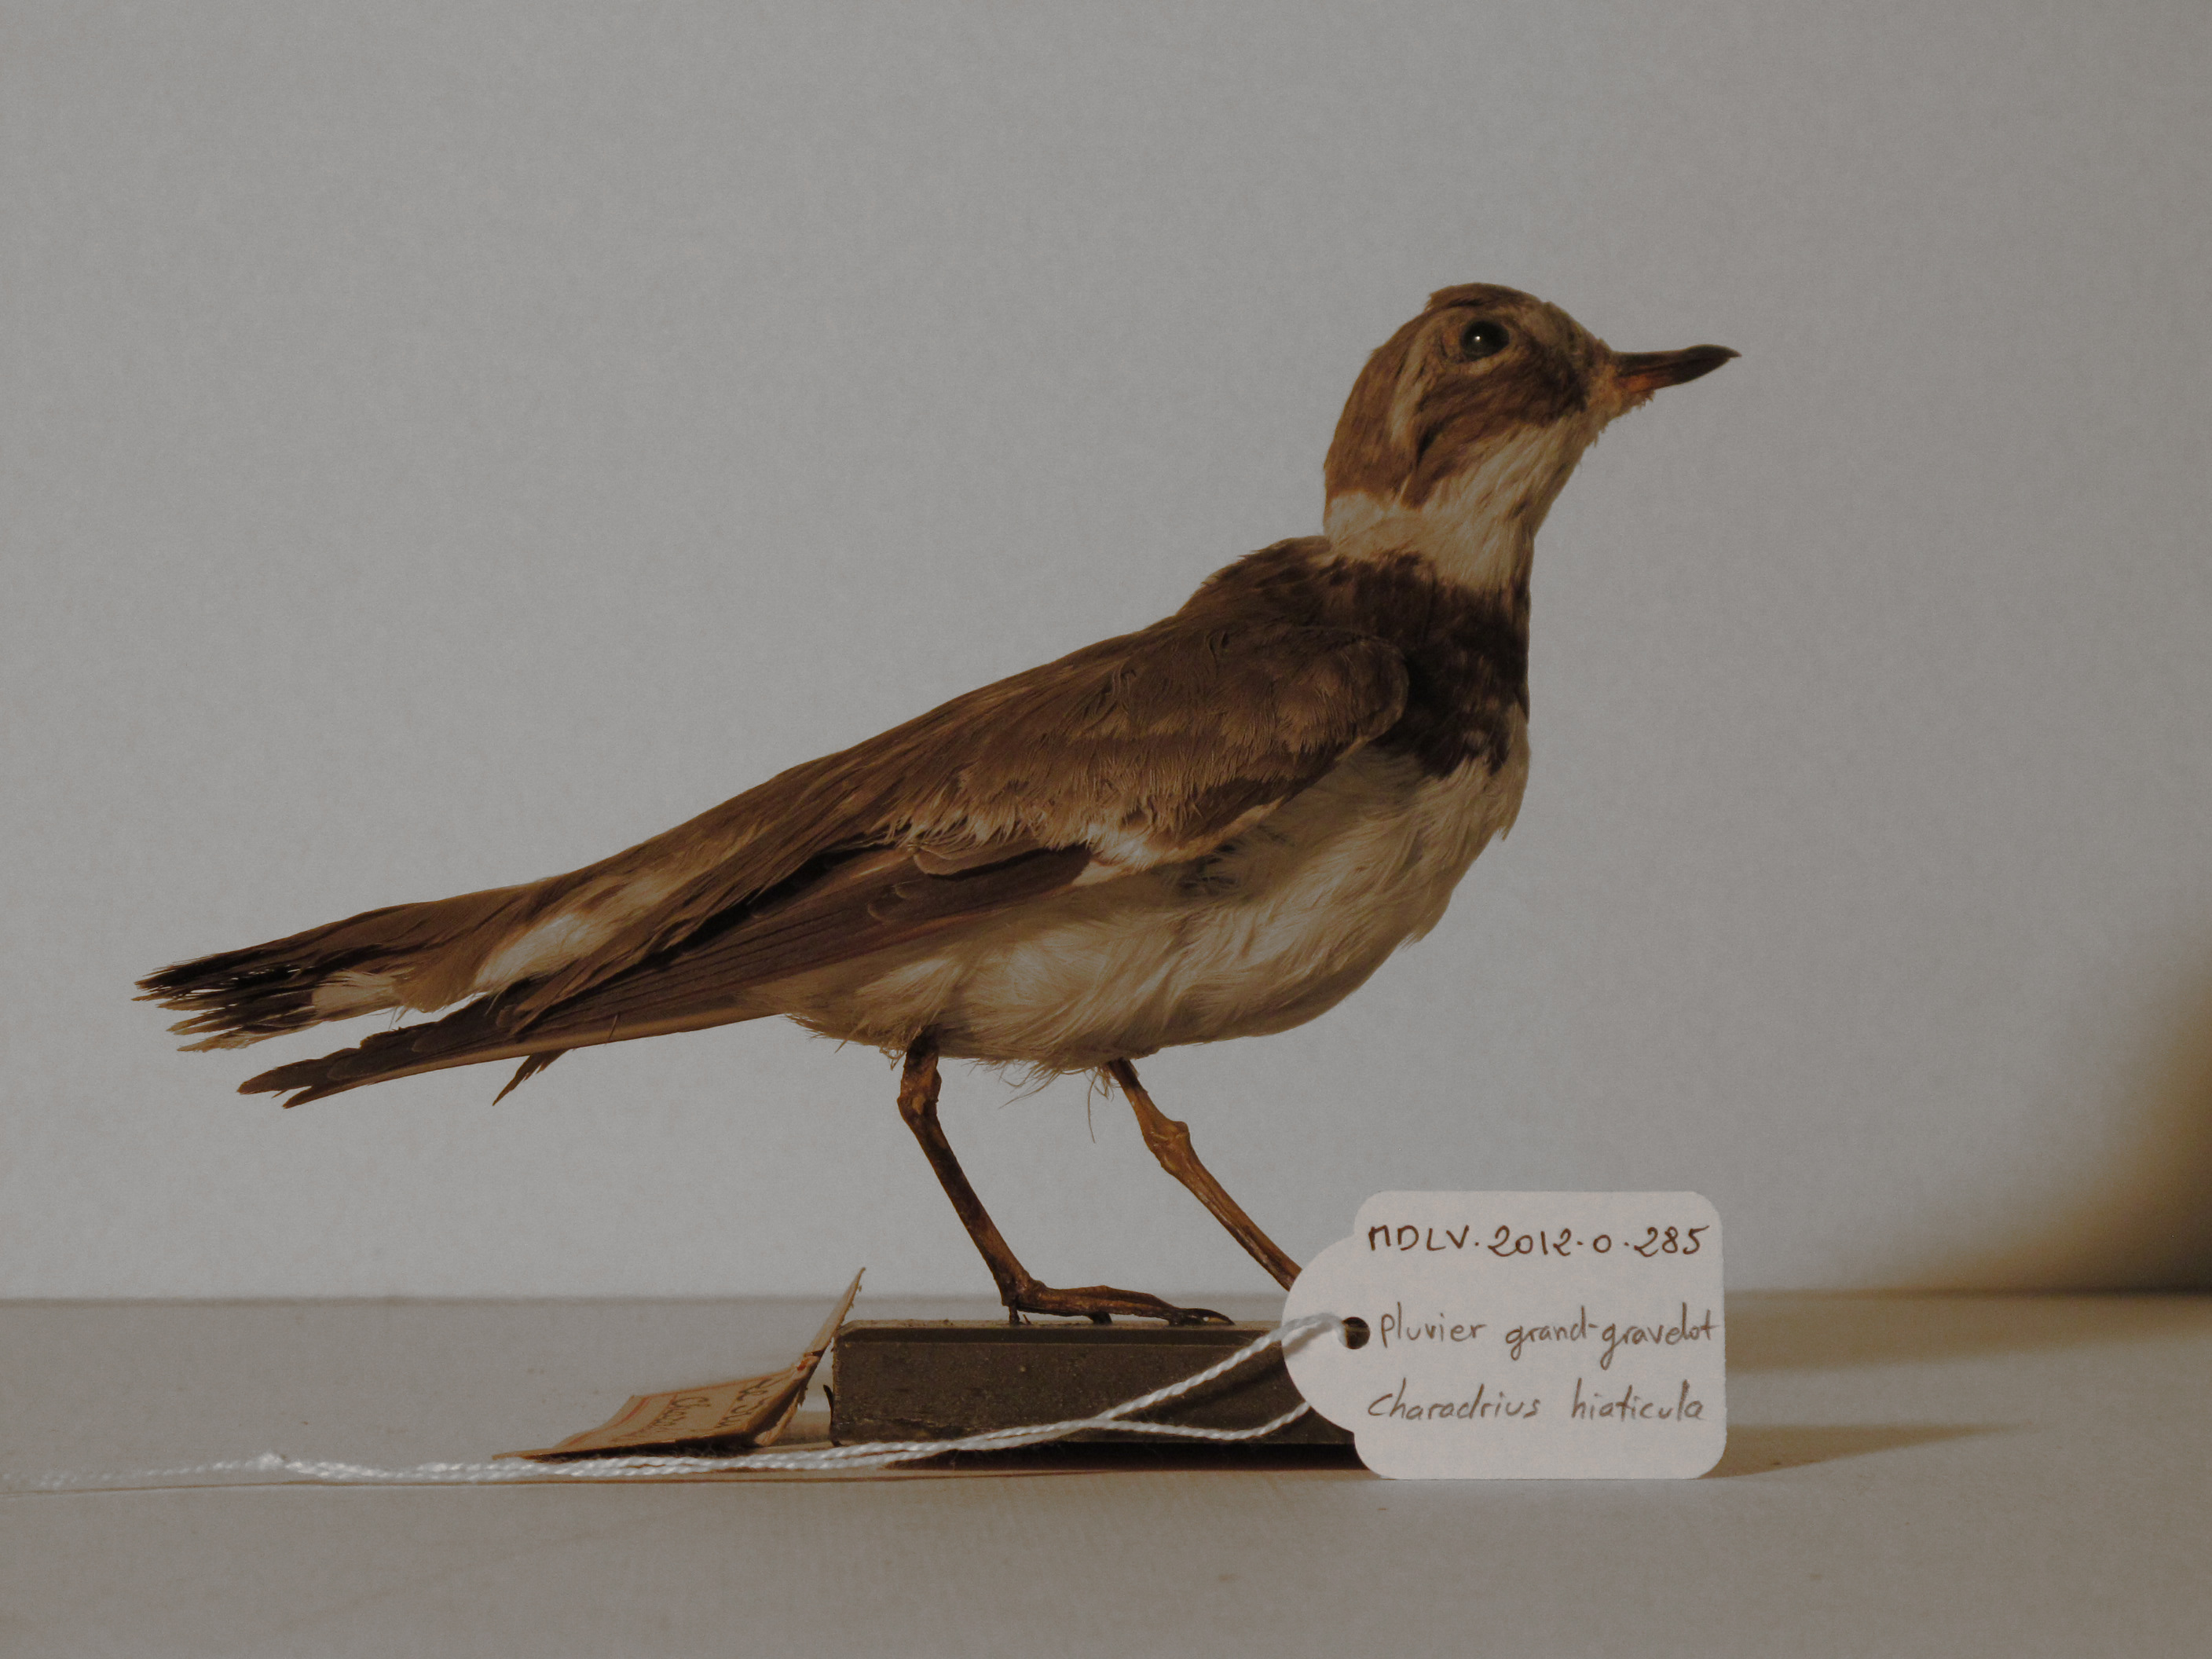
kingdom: Animalia
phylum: Chordata
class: Aves
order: Charadriiformes
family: Charadriidae
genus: Charadrius
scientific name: Charadrius hiaticula
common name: Common Ringed Plover
